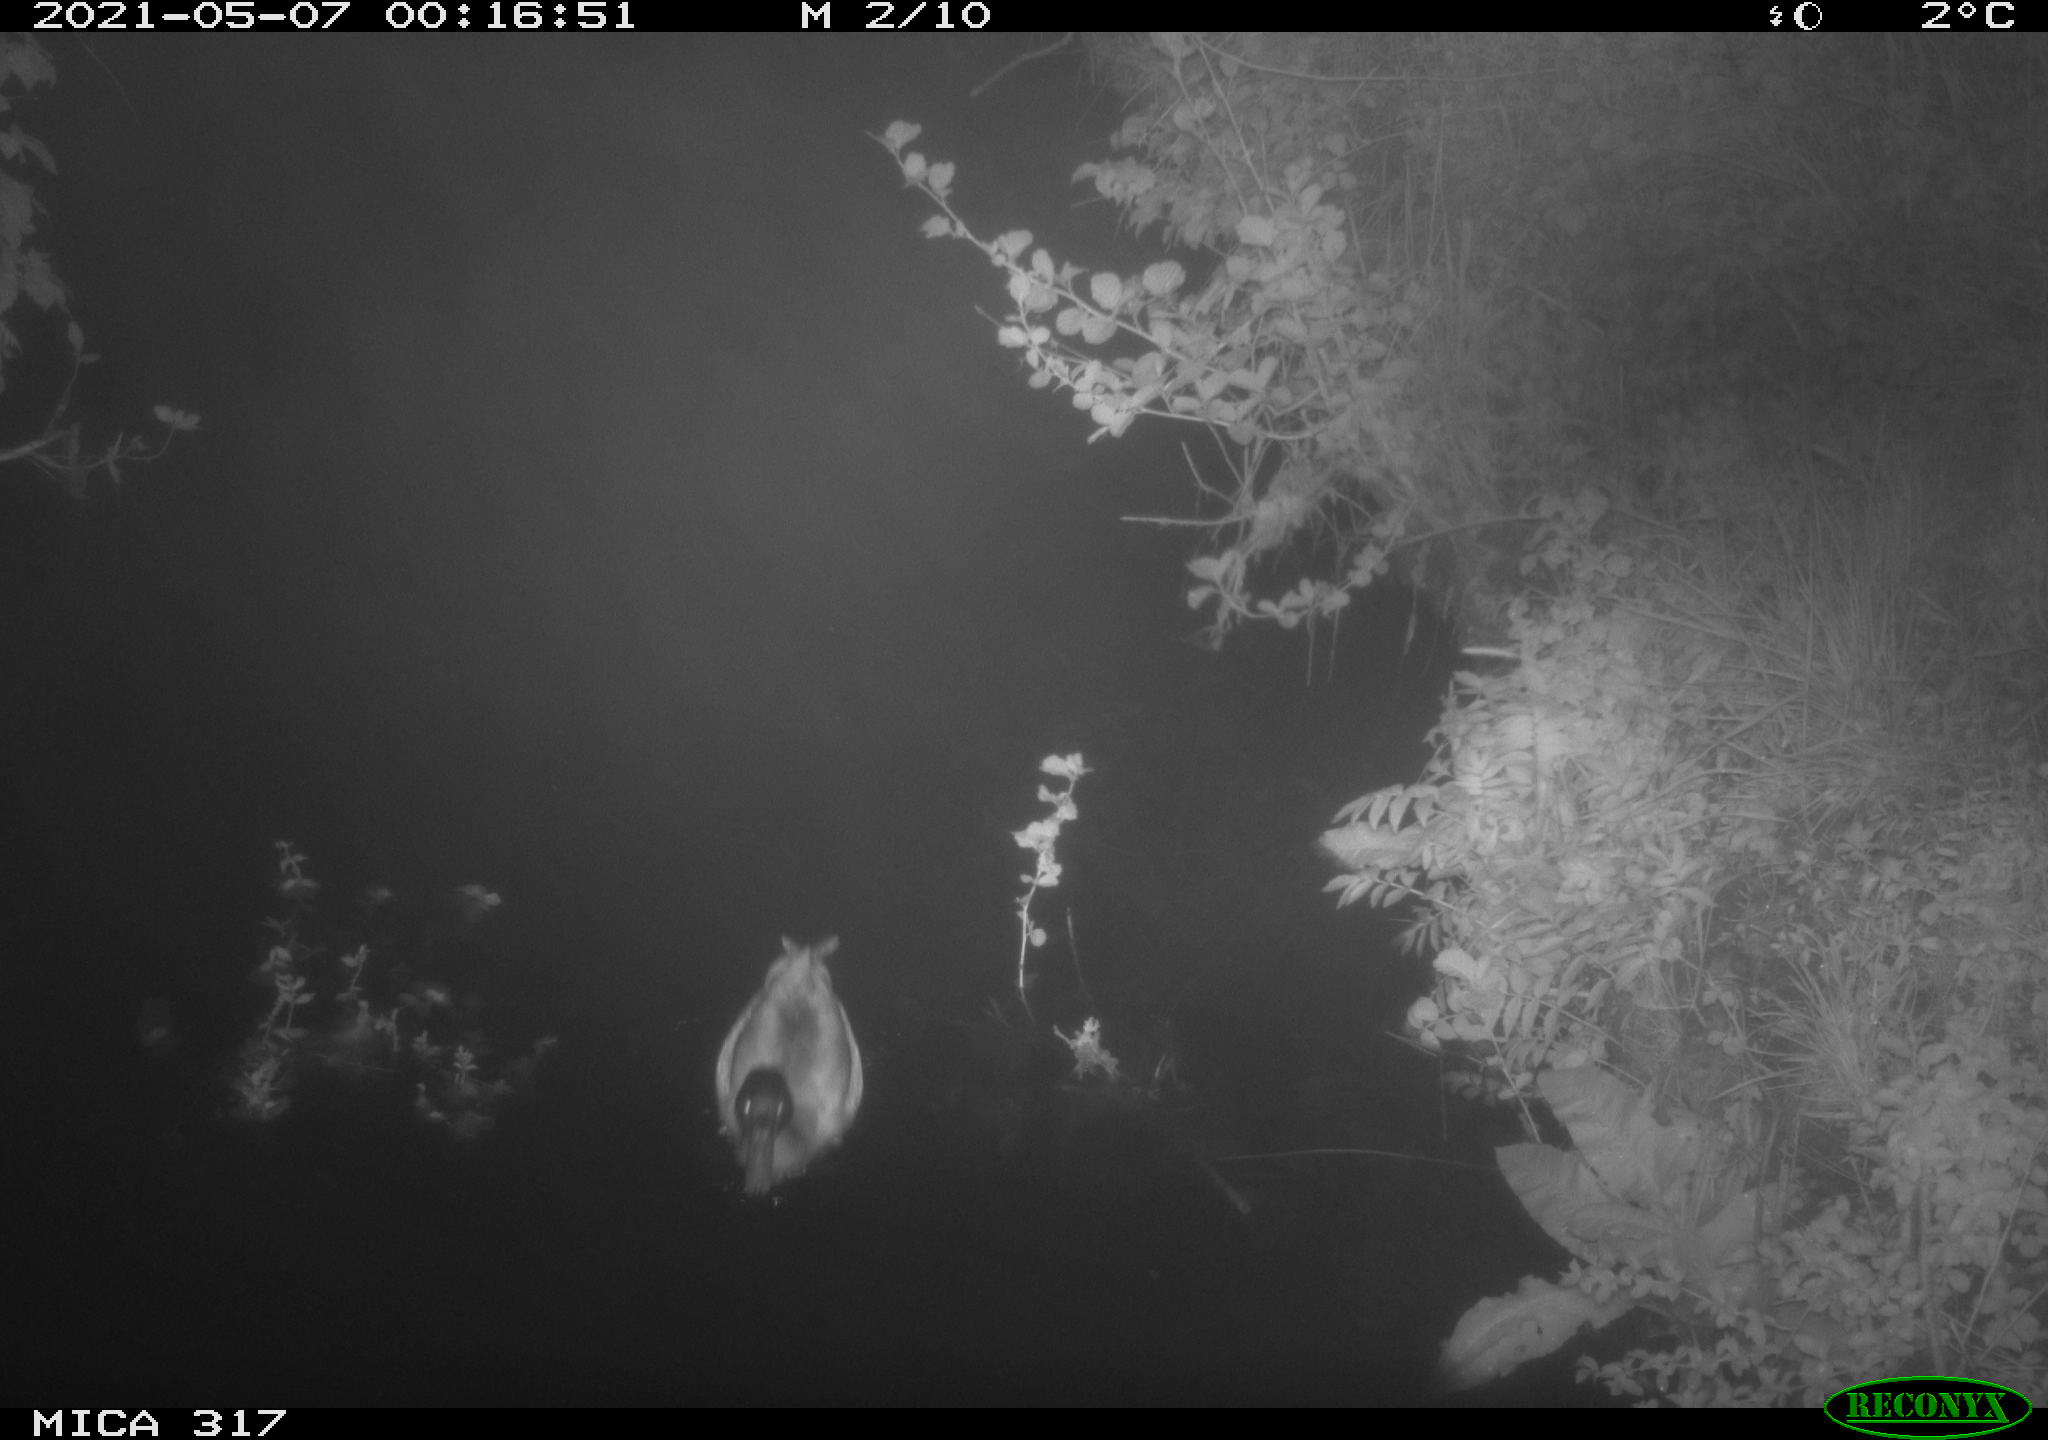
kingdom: Animalia
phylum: Chordata
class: Aves
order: Anseriformes
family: Anatidae
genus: Anas
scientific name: Anas
